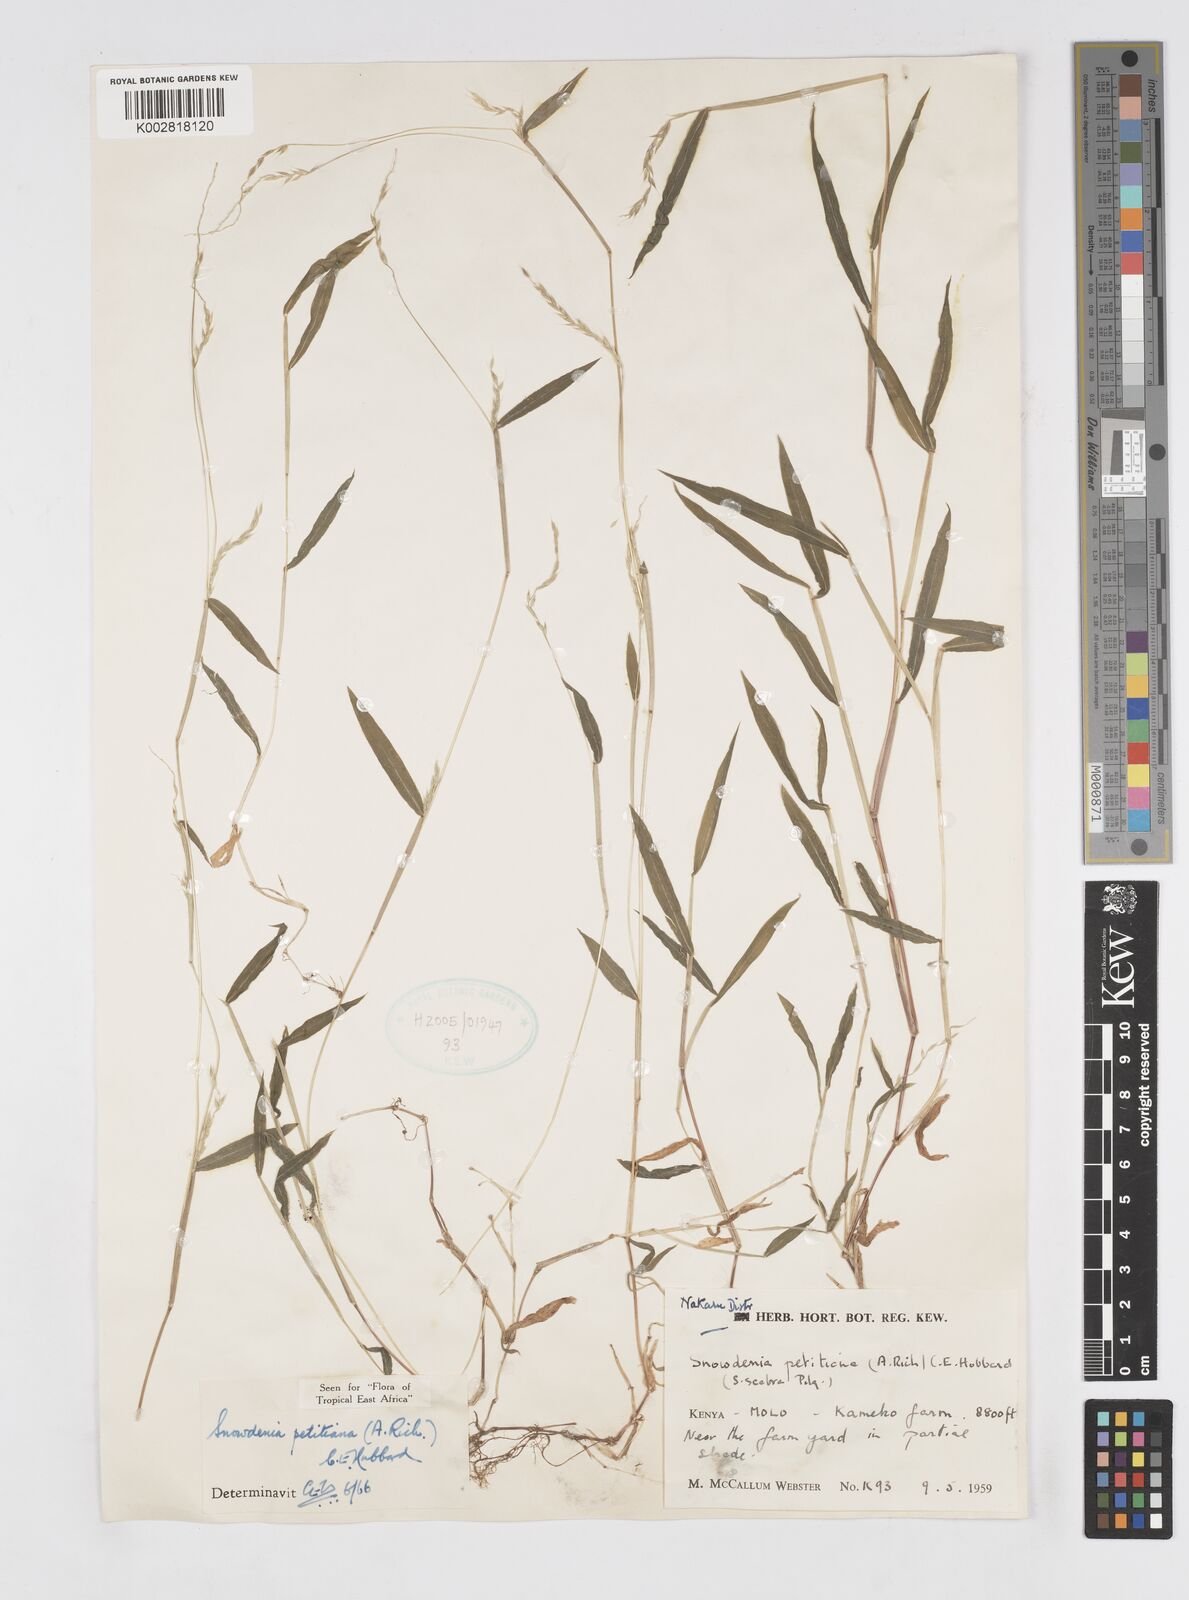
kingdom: Plantae
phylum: Tracheophyta
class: Liliopsida
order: Poales
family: Poaceae
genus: Snowdenia
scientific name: Snowdenia petitiana
